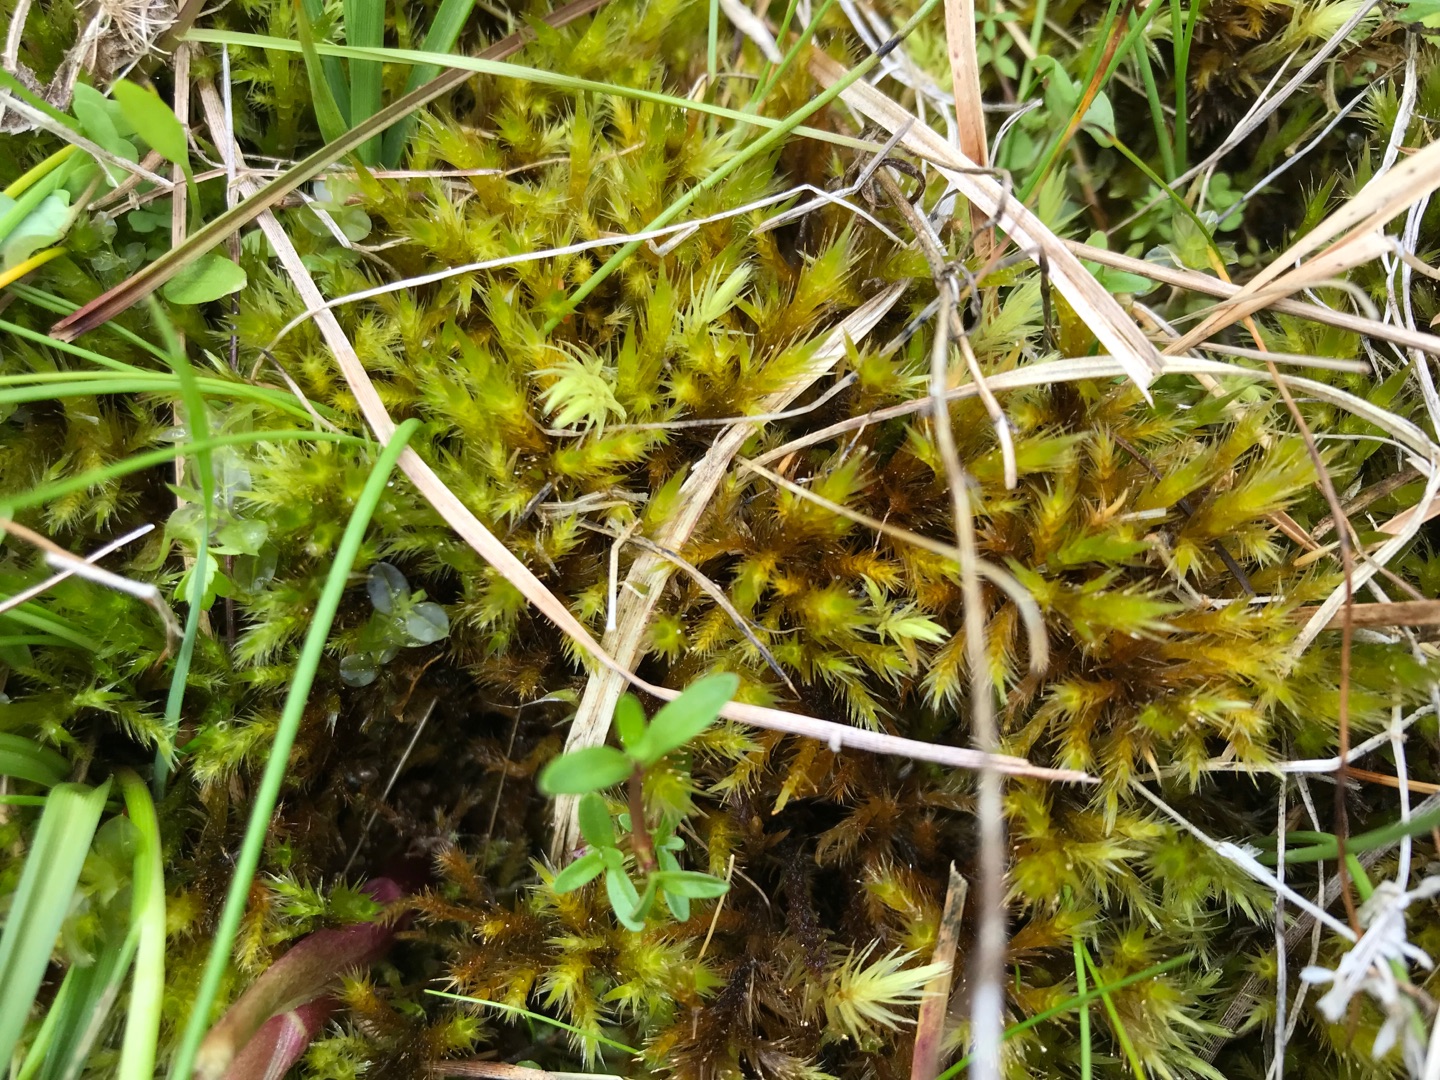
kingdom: Plantae
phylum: Bryophyta
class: Bryopsida
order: Hypnales
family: Amblystegiaceae
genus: Tomentypnum
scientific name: Tomentypnum nitens
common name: Glinsende kærmos
